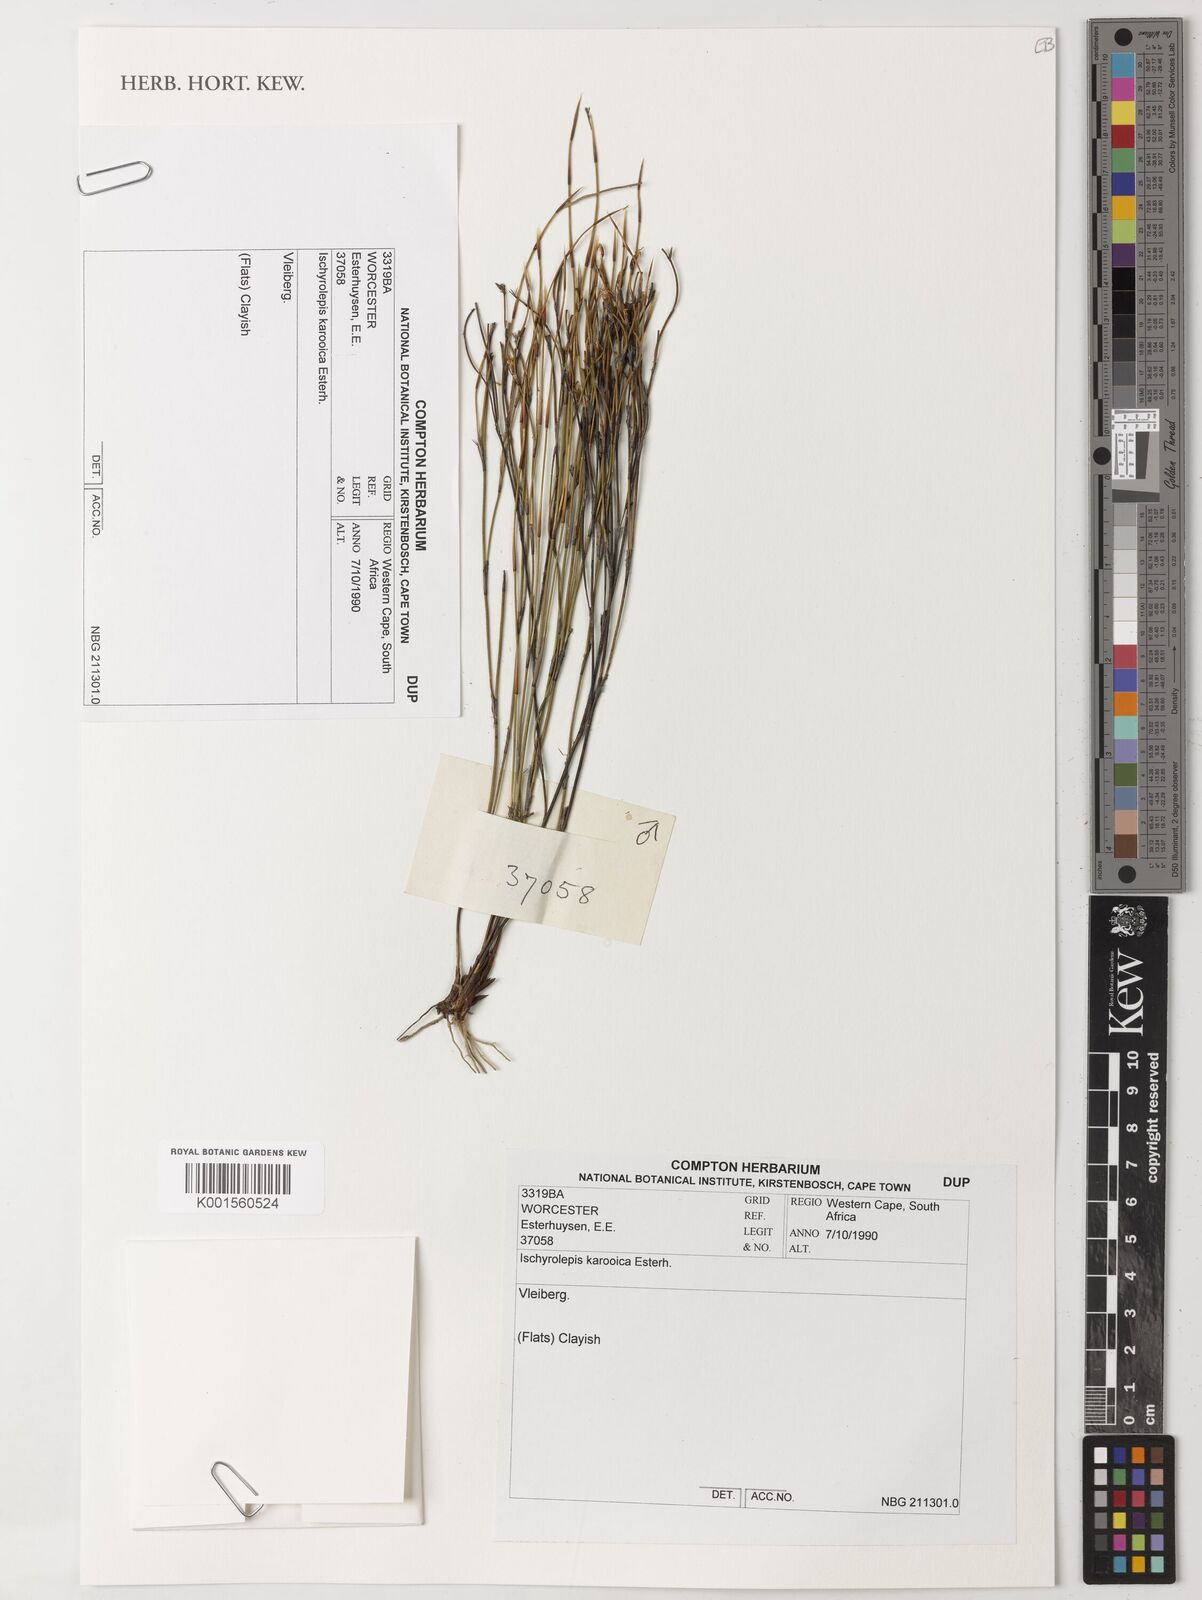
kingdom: Plantae
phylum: Tracheophyta
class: Liliopsida
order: Poales
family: Restionaceae
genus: Restio
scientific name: Restio karooicus
